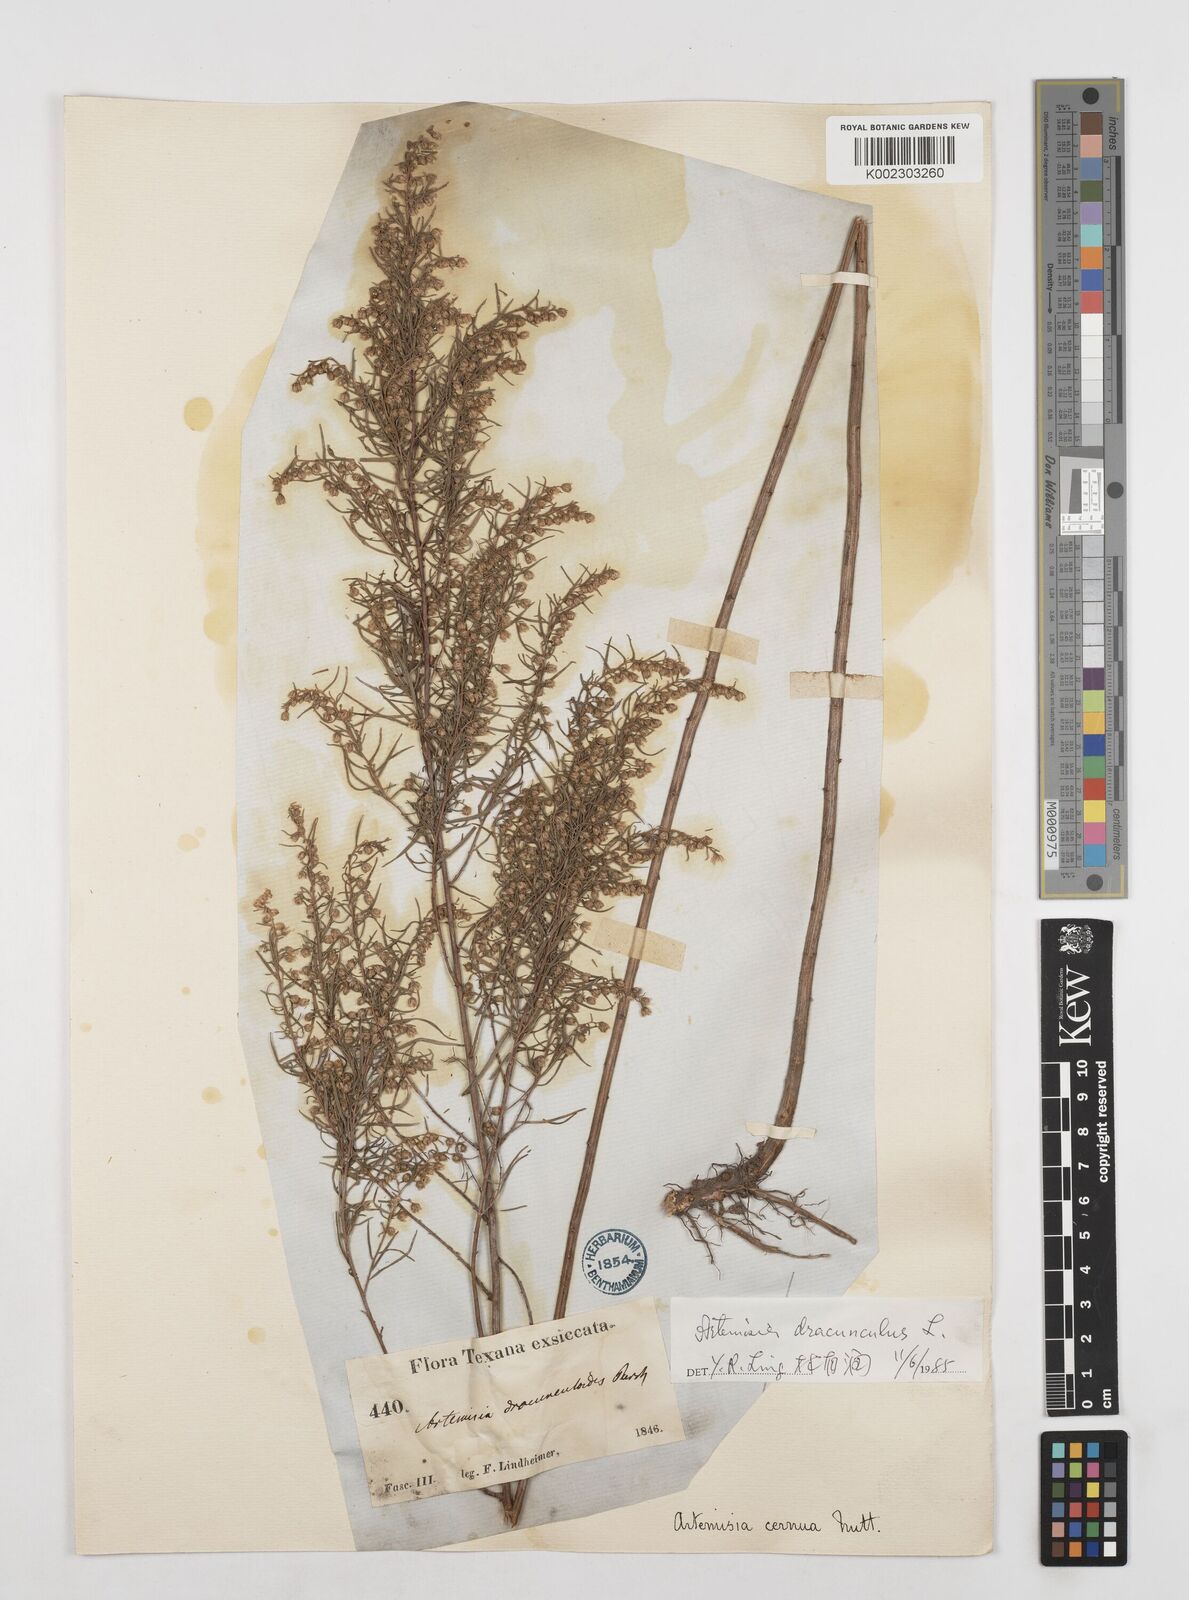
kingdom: Plantae
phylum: Tracheophyta
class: Magnoliopsida
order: Asterales
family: Asteraceae
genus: Artemisia
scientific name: Artemisia dracunculus
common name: Tarragon
